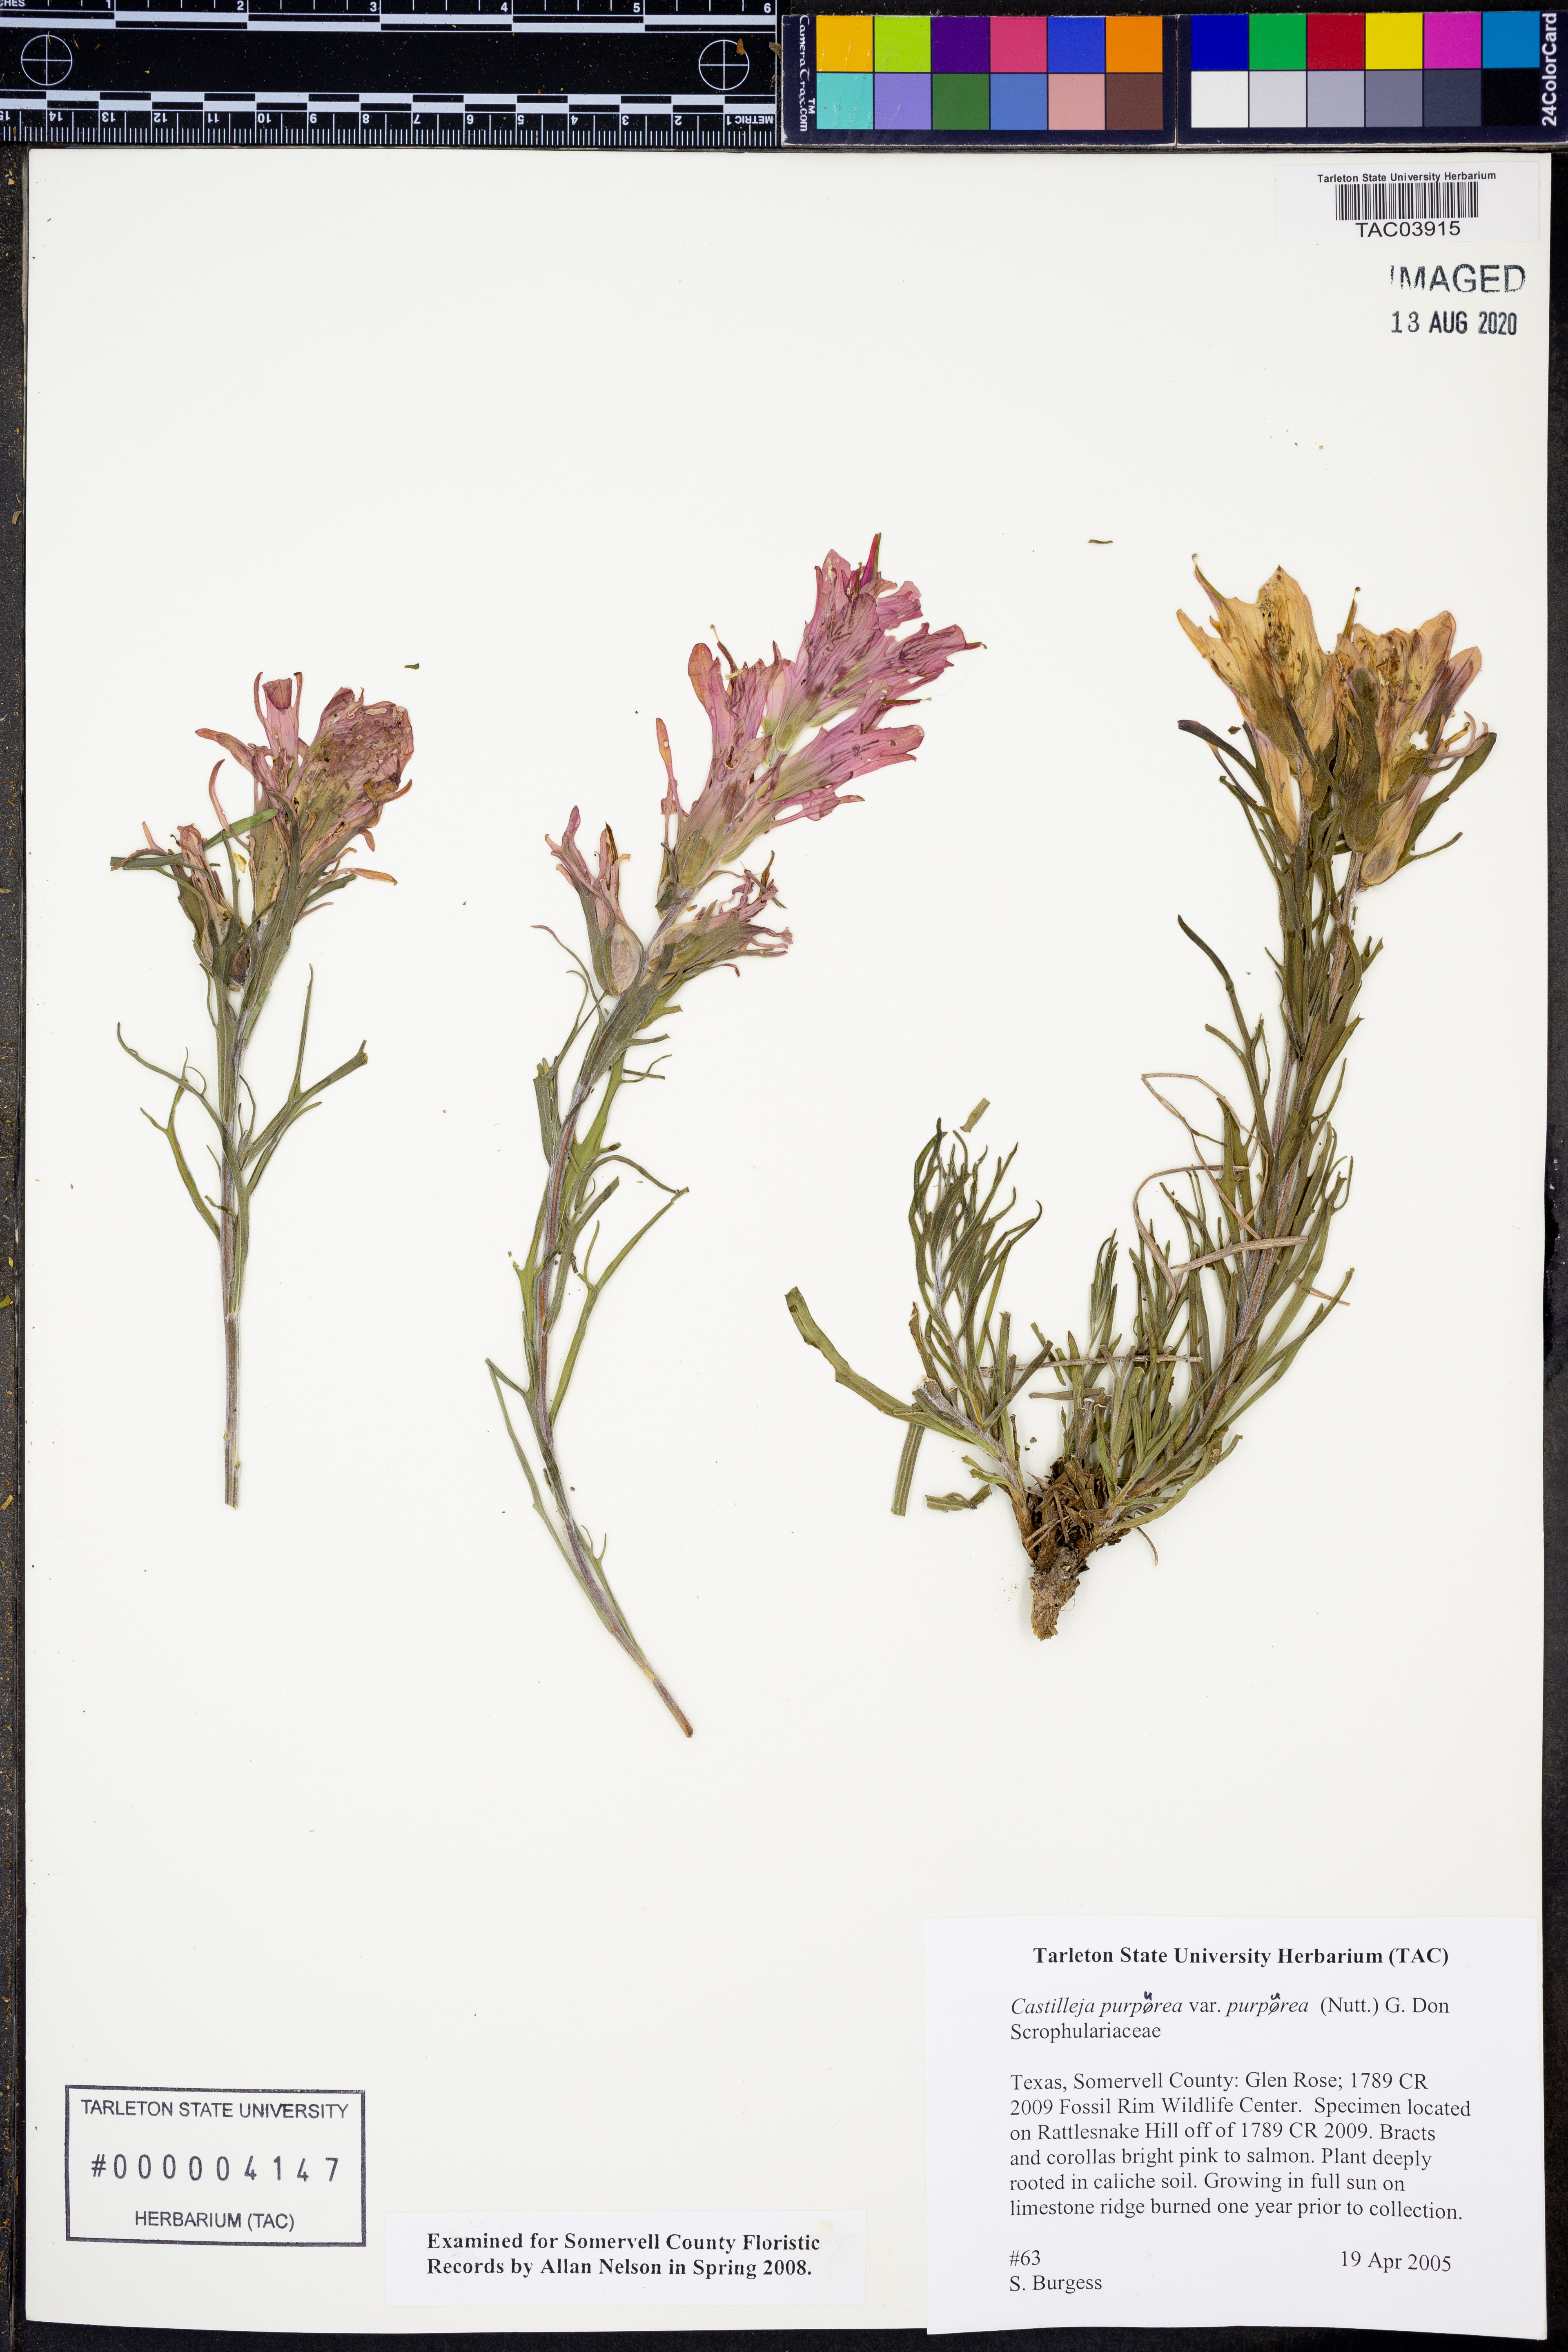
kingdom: Plantae
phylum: Tracheophyta
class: Magnoliopsida
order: Lamiales
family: Orobanchaceae
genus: Castilleja
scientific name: Castilleja purpurea
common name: Plains paintbrush
